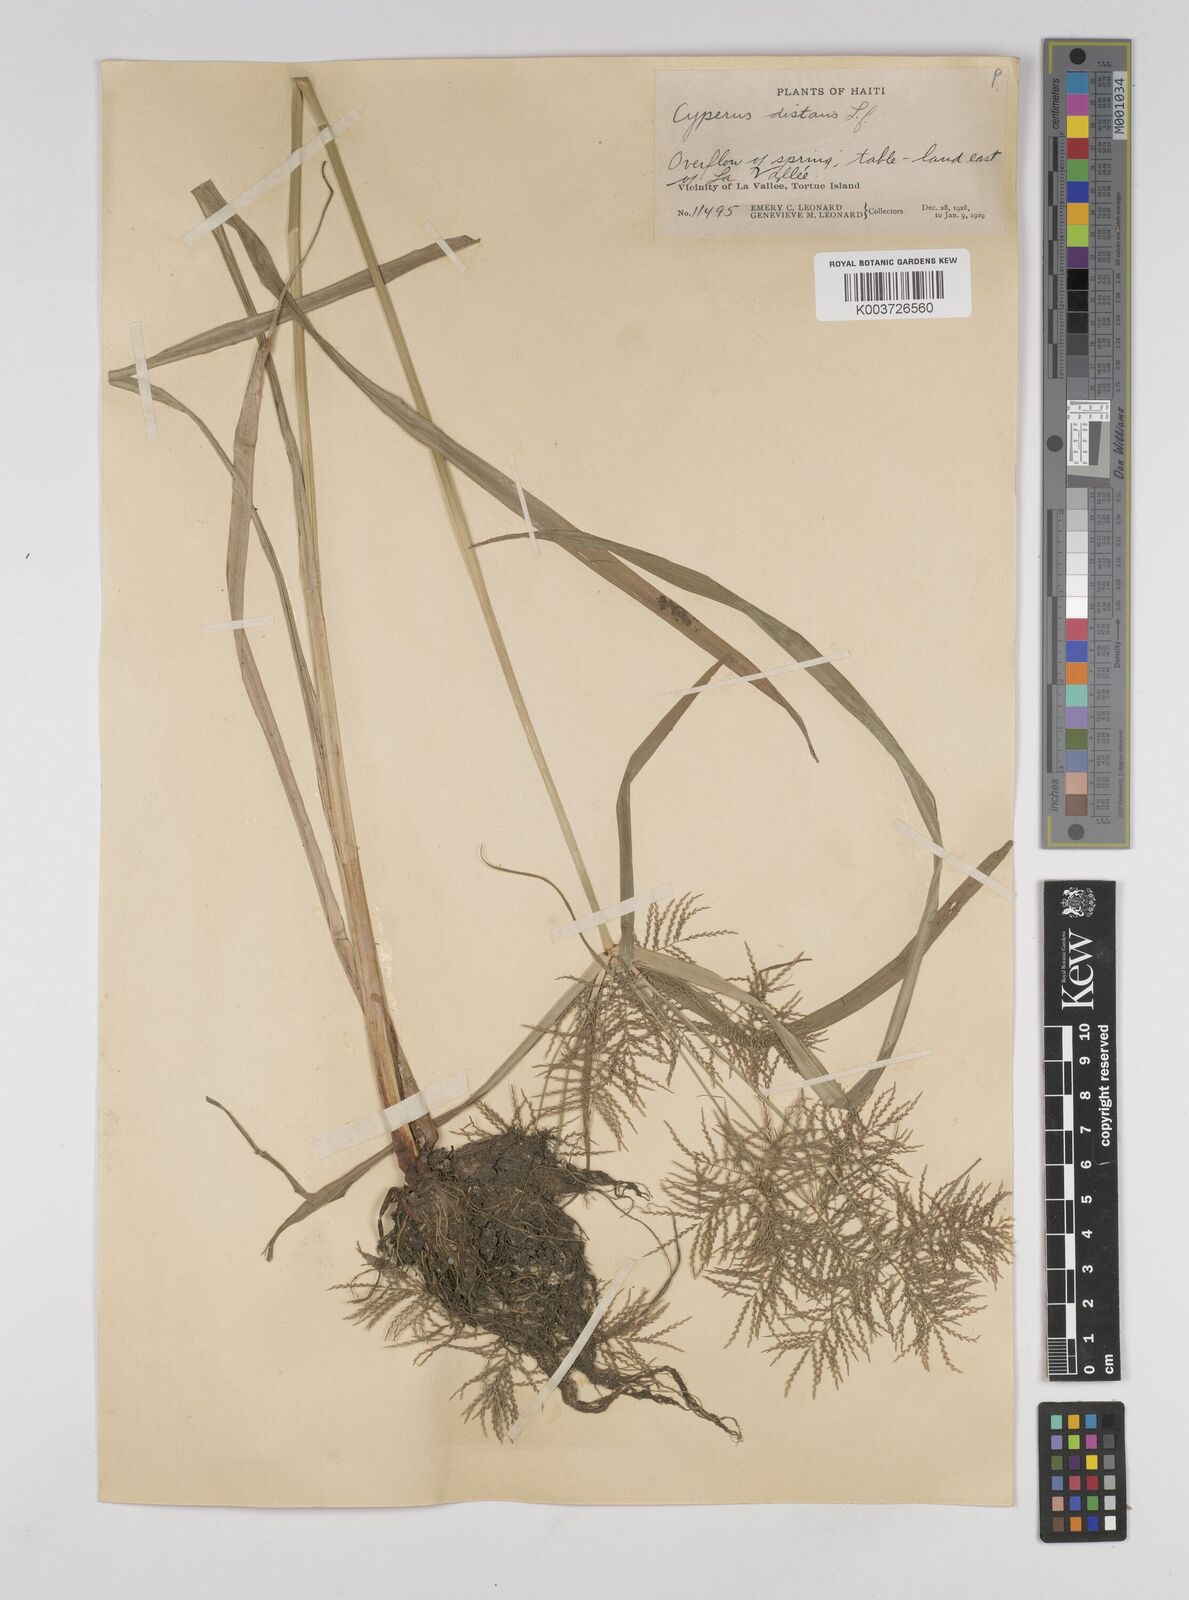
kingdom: Plantae
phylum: Tracheophyta
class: Liliopsida
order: Poales
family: Cyperaceae
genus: Cyperus
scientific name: Cyperus distans
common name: Slender cyperus
